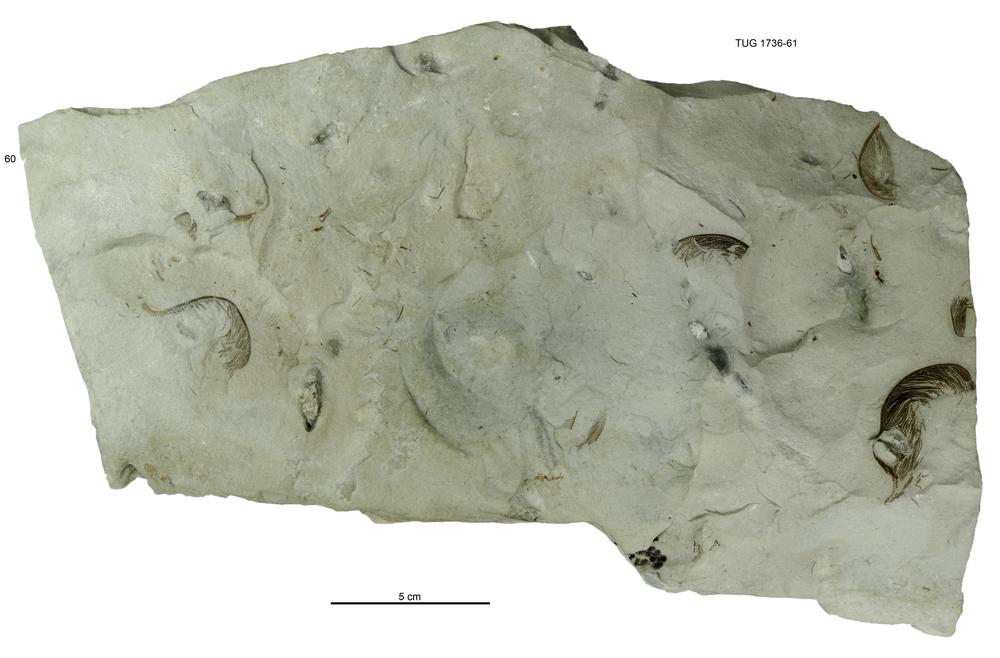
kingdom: Animalia
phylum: Echinodermata
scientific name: Echinodermata
